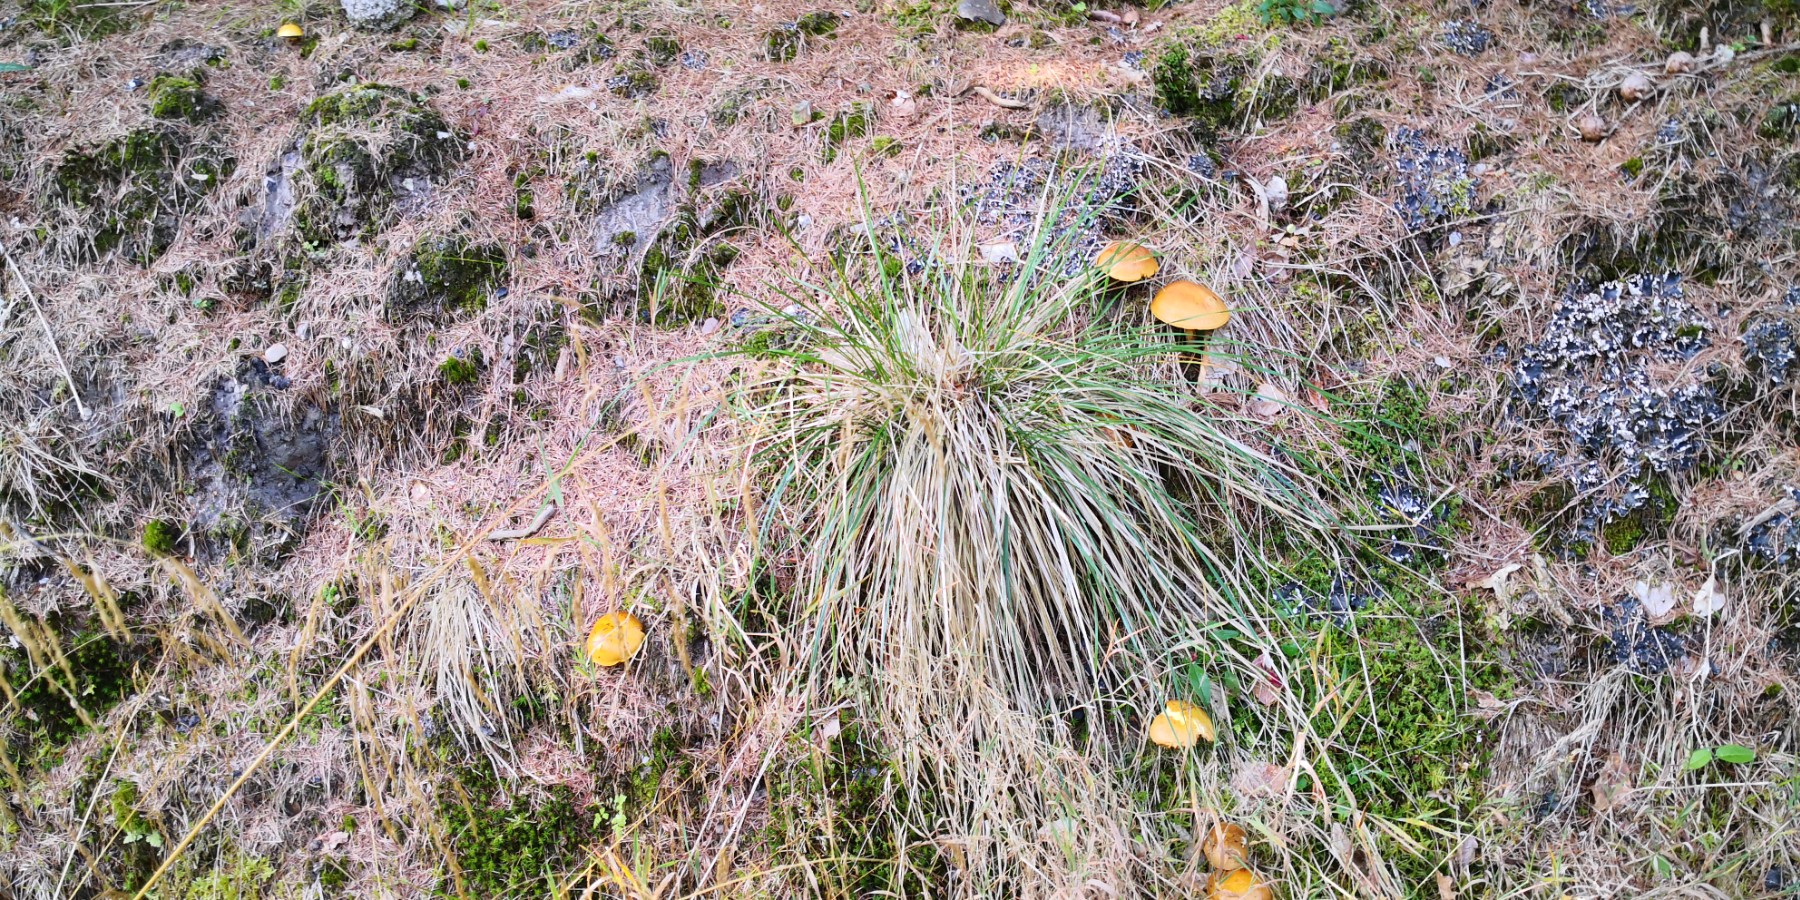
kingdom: Fungi
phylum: Basidiomycota
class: Agaricomycetes
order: Boletales
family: Suillaceae
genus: Suillus
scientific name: Suillus grevillei
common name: lærke-slimrørhat
